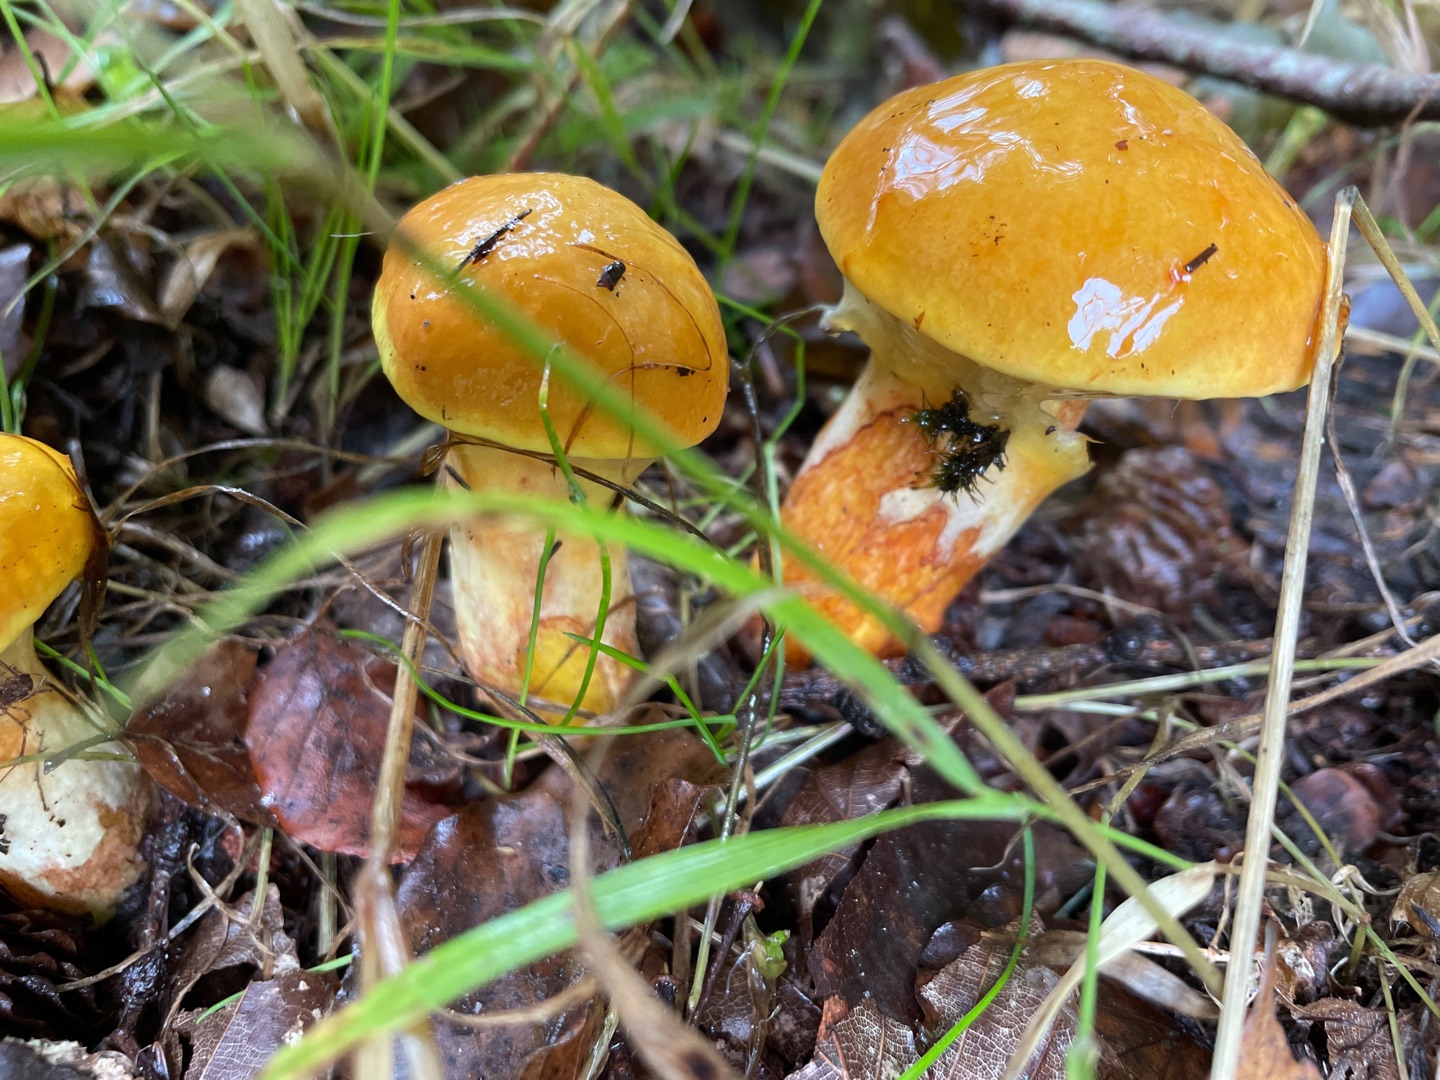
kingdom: Fungi
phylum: Basidiomycota
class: Agaricomycetes
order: Boletales
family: Suillaceae
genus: Suillus
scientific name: Suillus grevillei
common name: Lærke-slimrørhat
